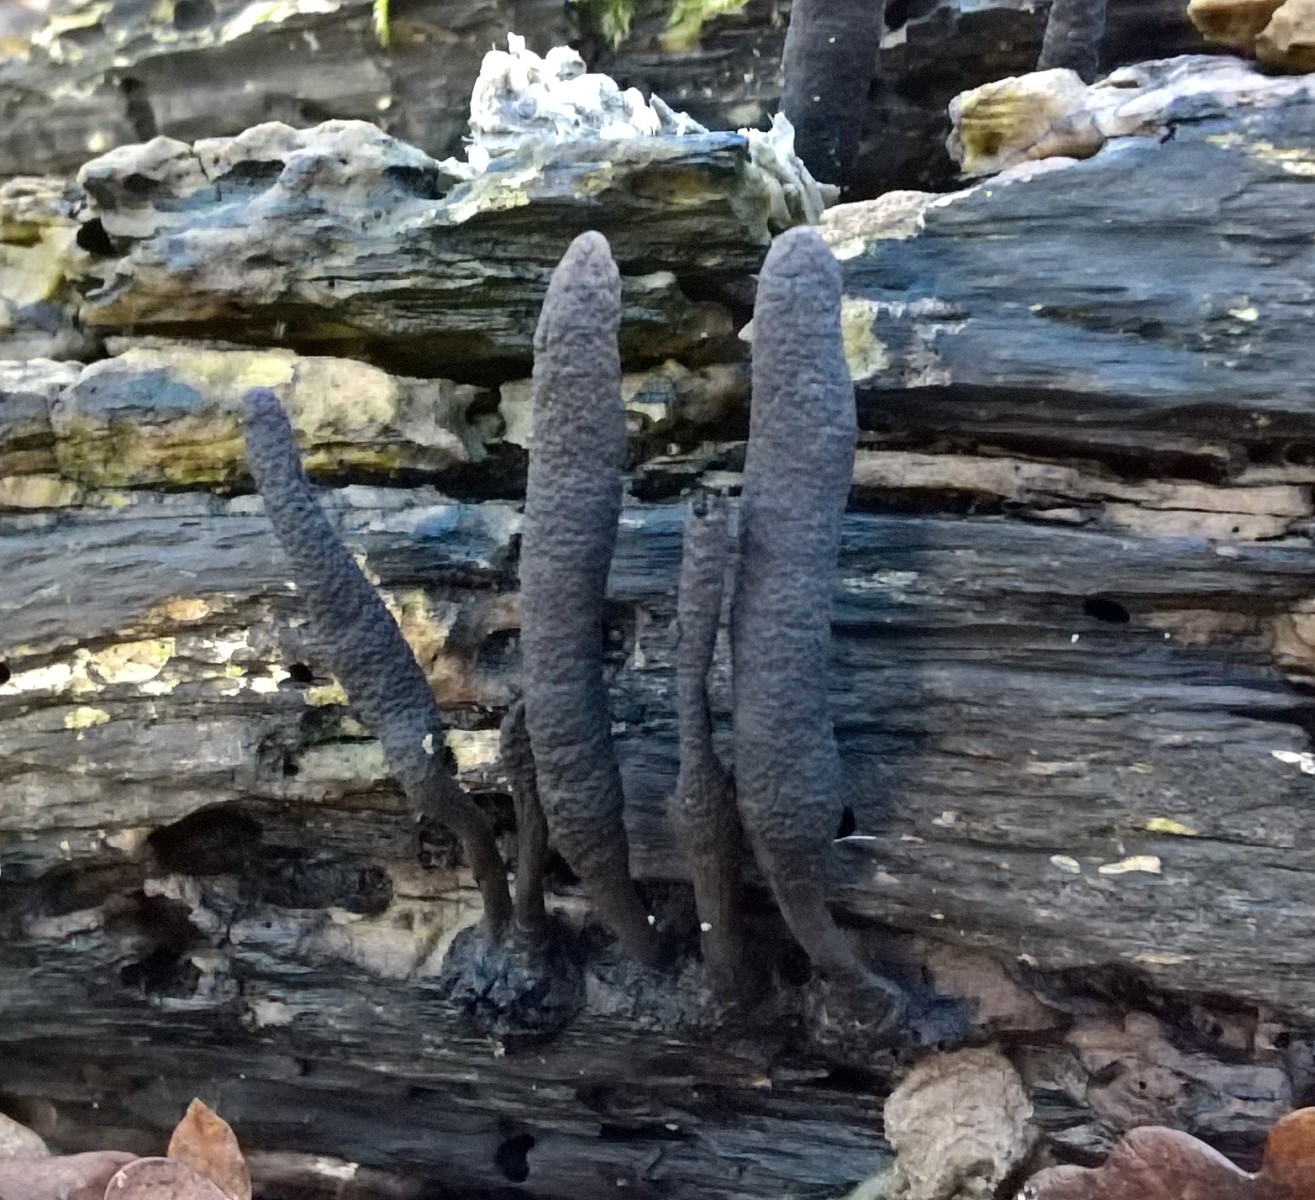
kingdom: Fungi
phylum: Ascomycota
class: Sordariomycetes
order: Xylariales
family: Xylariaceae
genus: Xylaria
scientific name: Xylaria longipes
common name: slank stødsvamp
